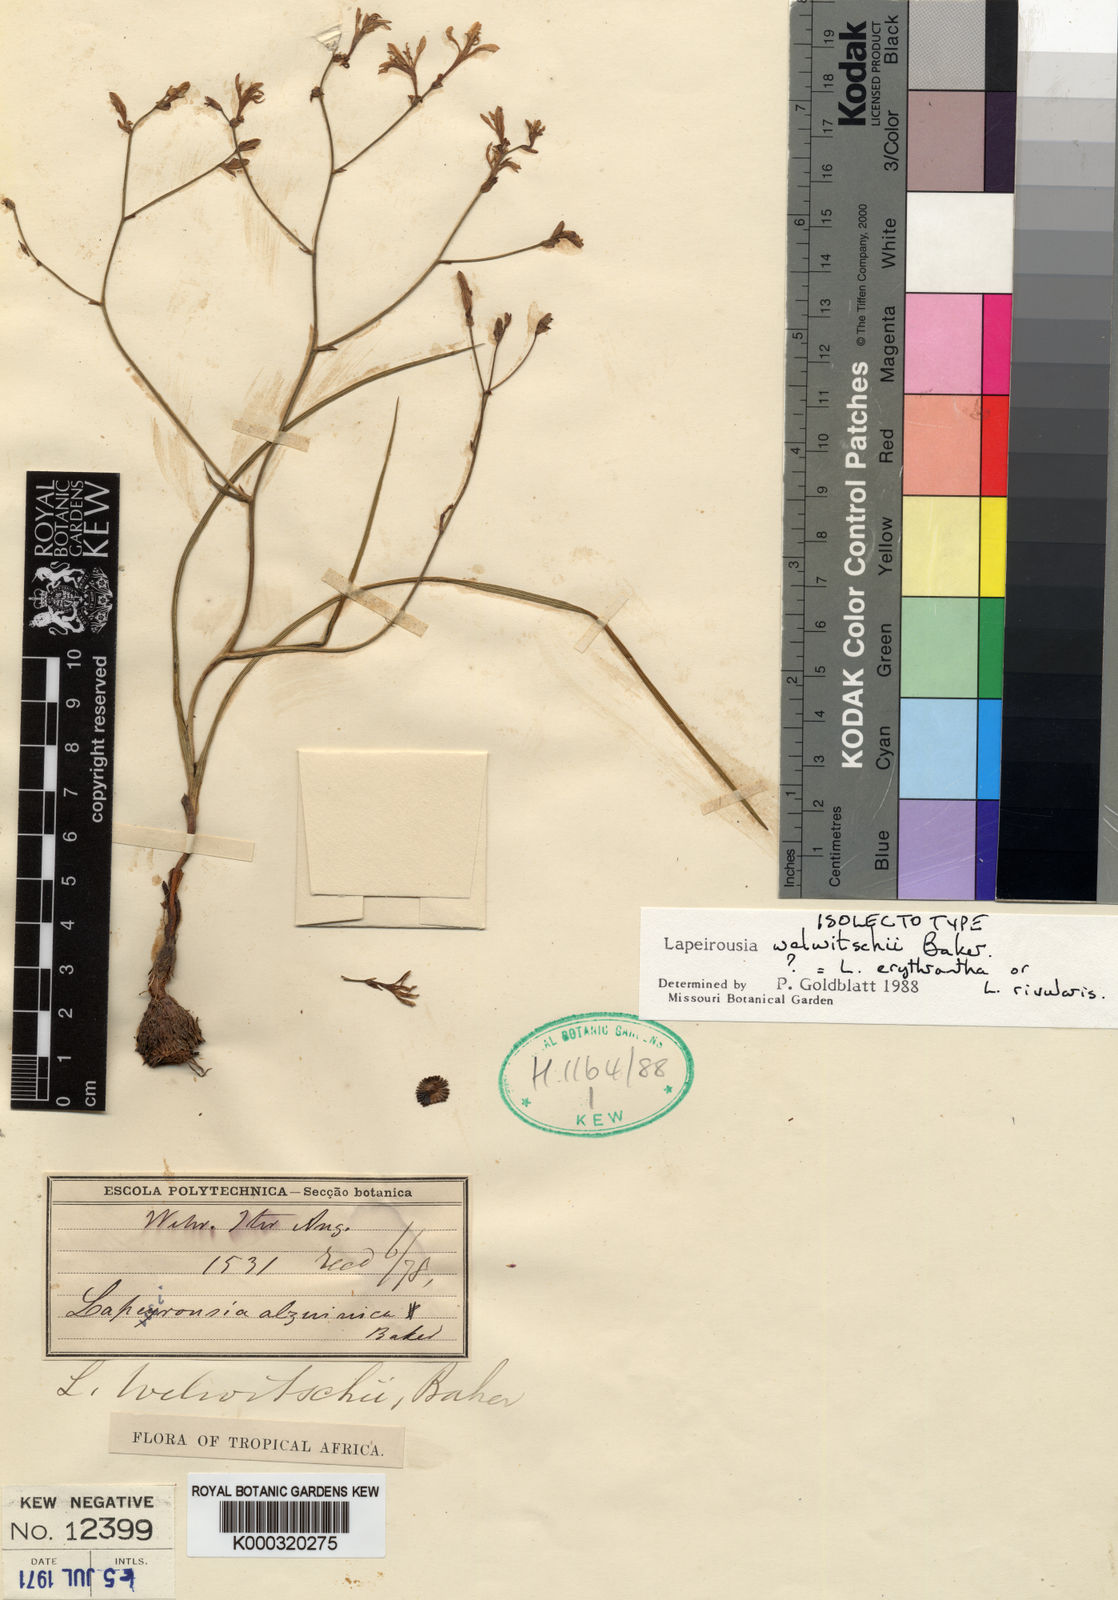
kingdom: Plantae
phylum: Tracheophyta
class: Liliopsida
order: Asparagales
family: Iridaceae
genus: Afrosolen
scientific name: Afrosolen erythranthus
